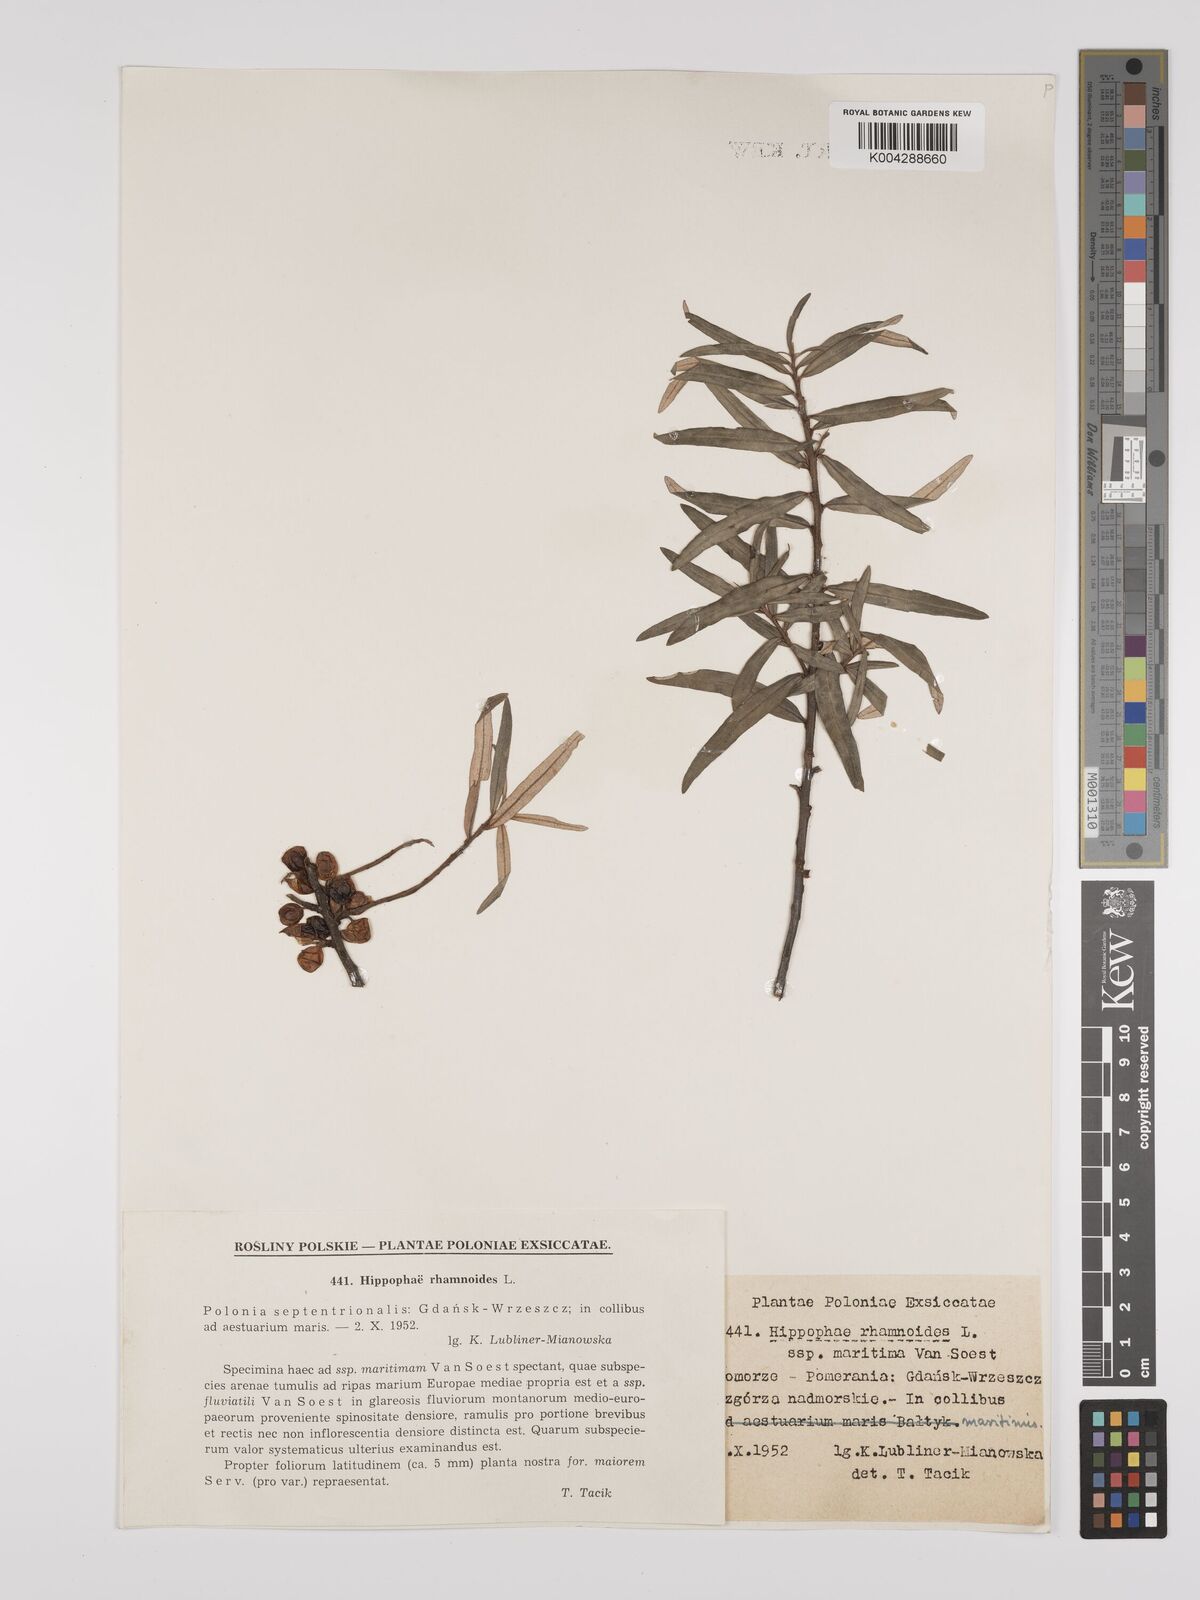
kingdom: Plantae
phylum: Tracheophyta
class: Magnoliopsida
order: Rosales
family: Elaeagnaceae
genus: Hippophae
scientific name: Hippophae rhamnoides
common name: Sea-buckthorn
